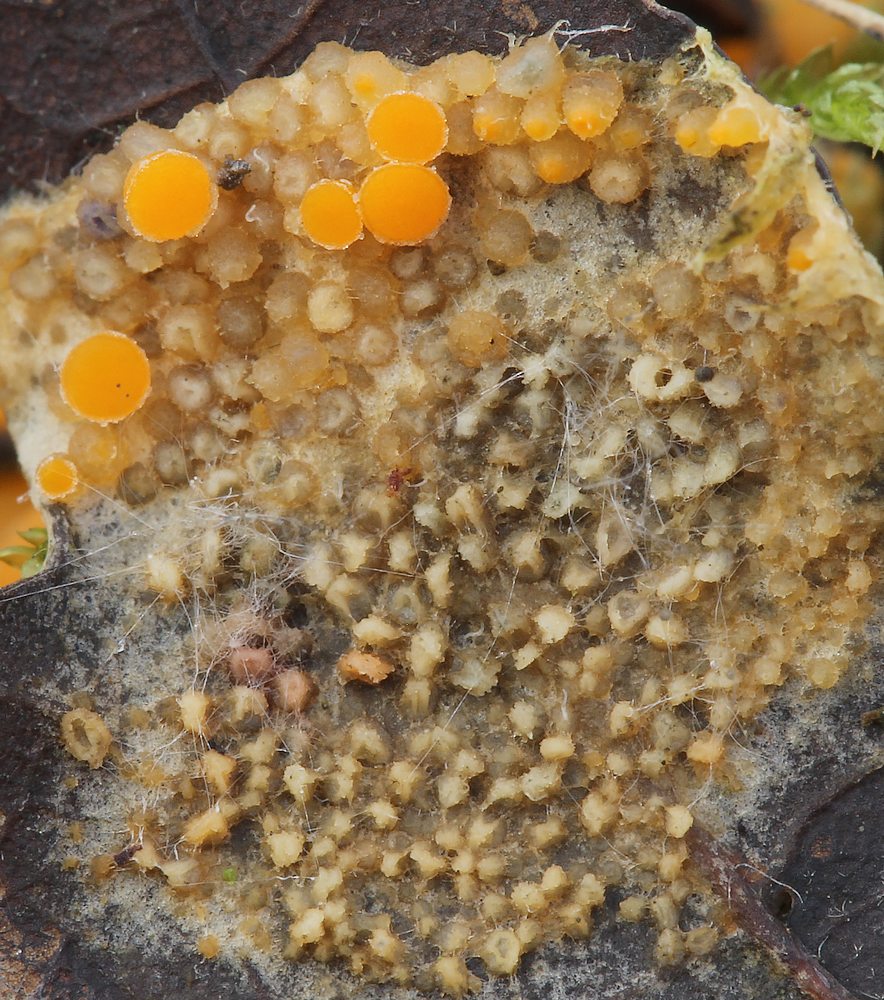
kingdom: Fungi
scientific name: Fungi
